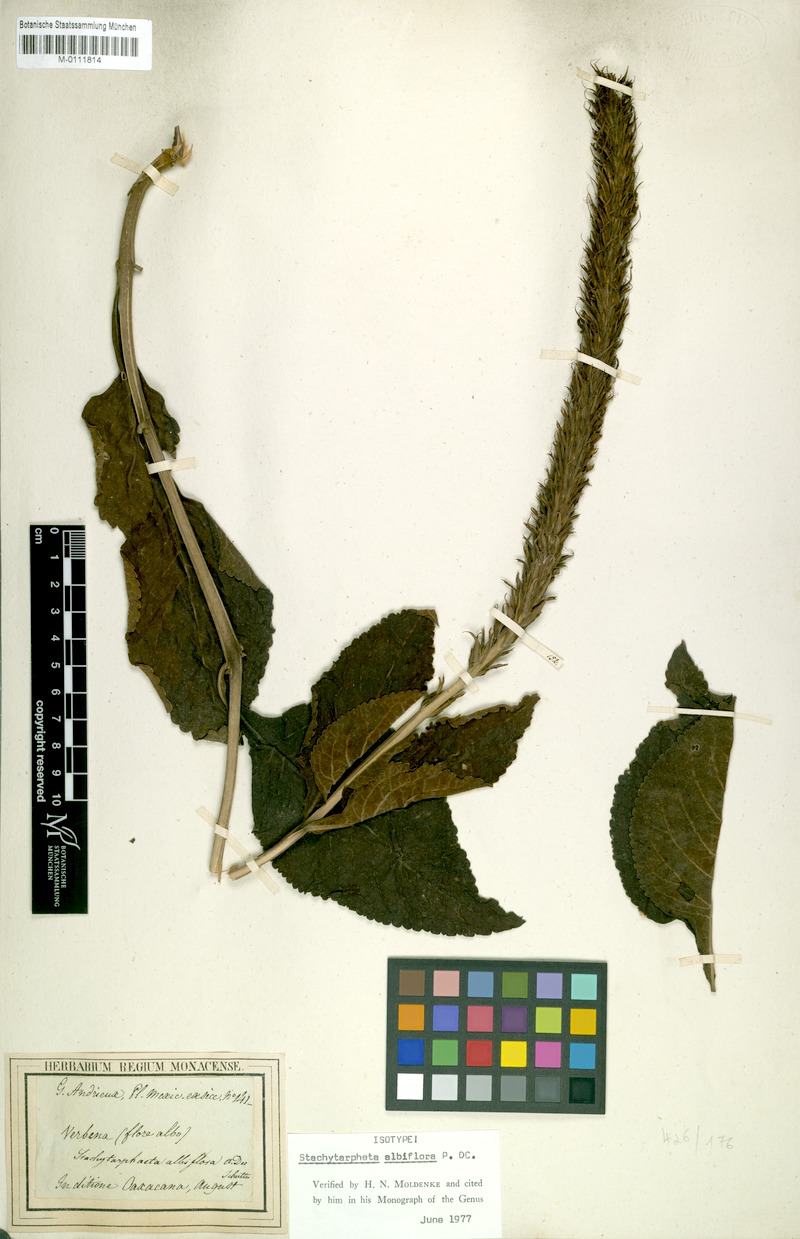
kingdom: Plantae
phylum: Tracheophyta
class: Magnoliopsida
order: Lamiales
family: Verbenaceae
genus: Stachytarpheta
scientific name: Stachytarpheta albiflora
